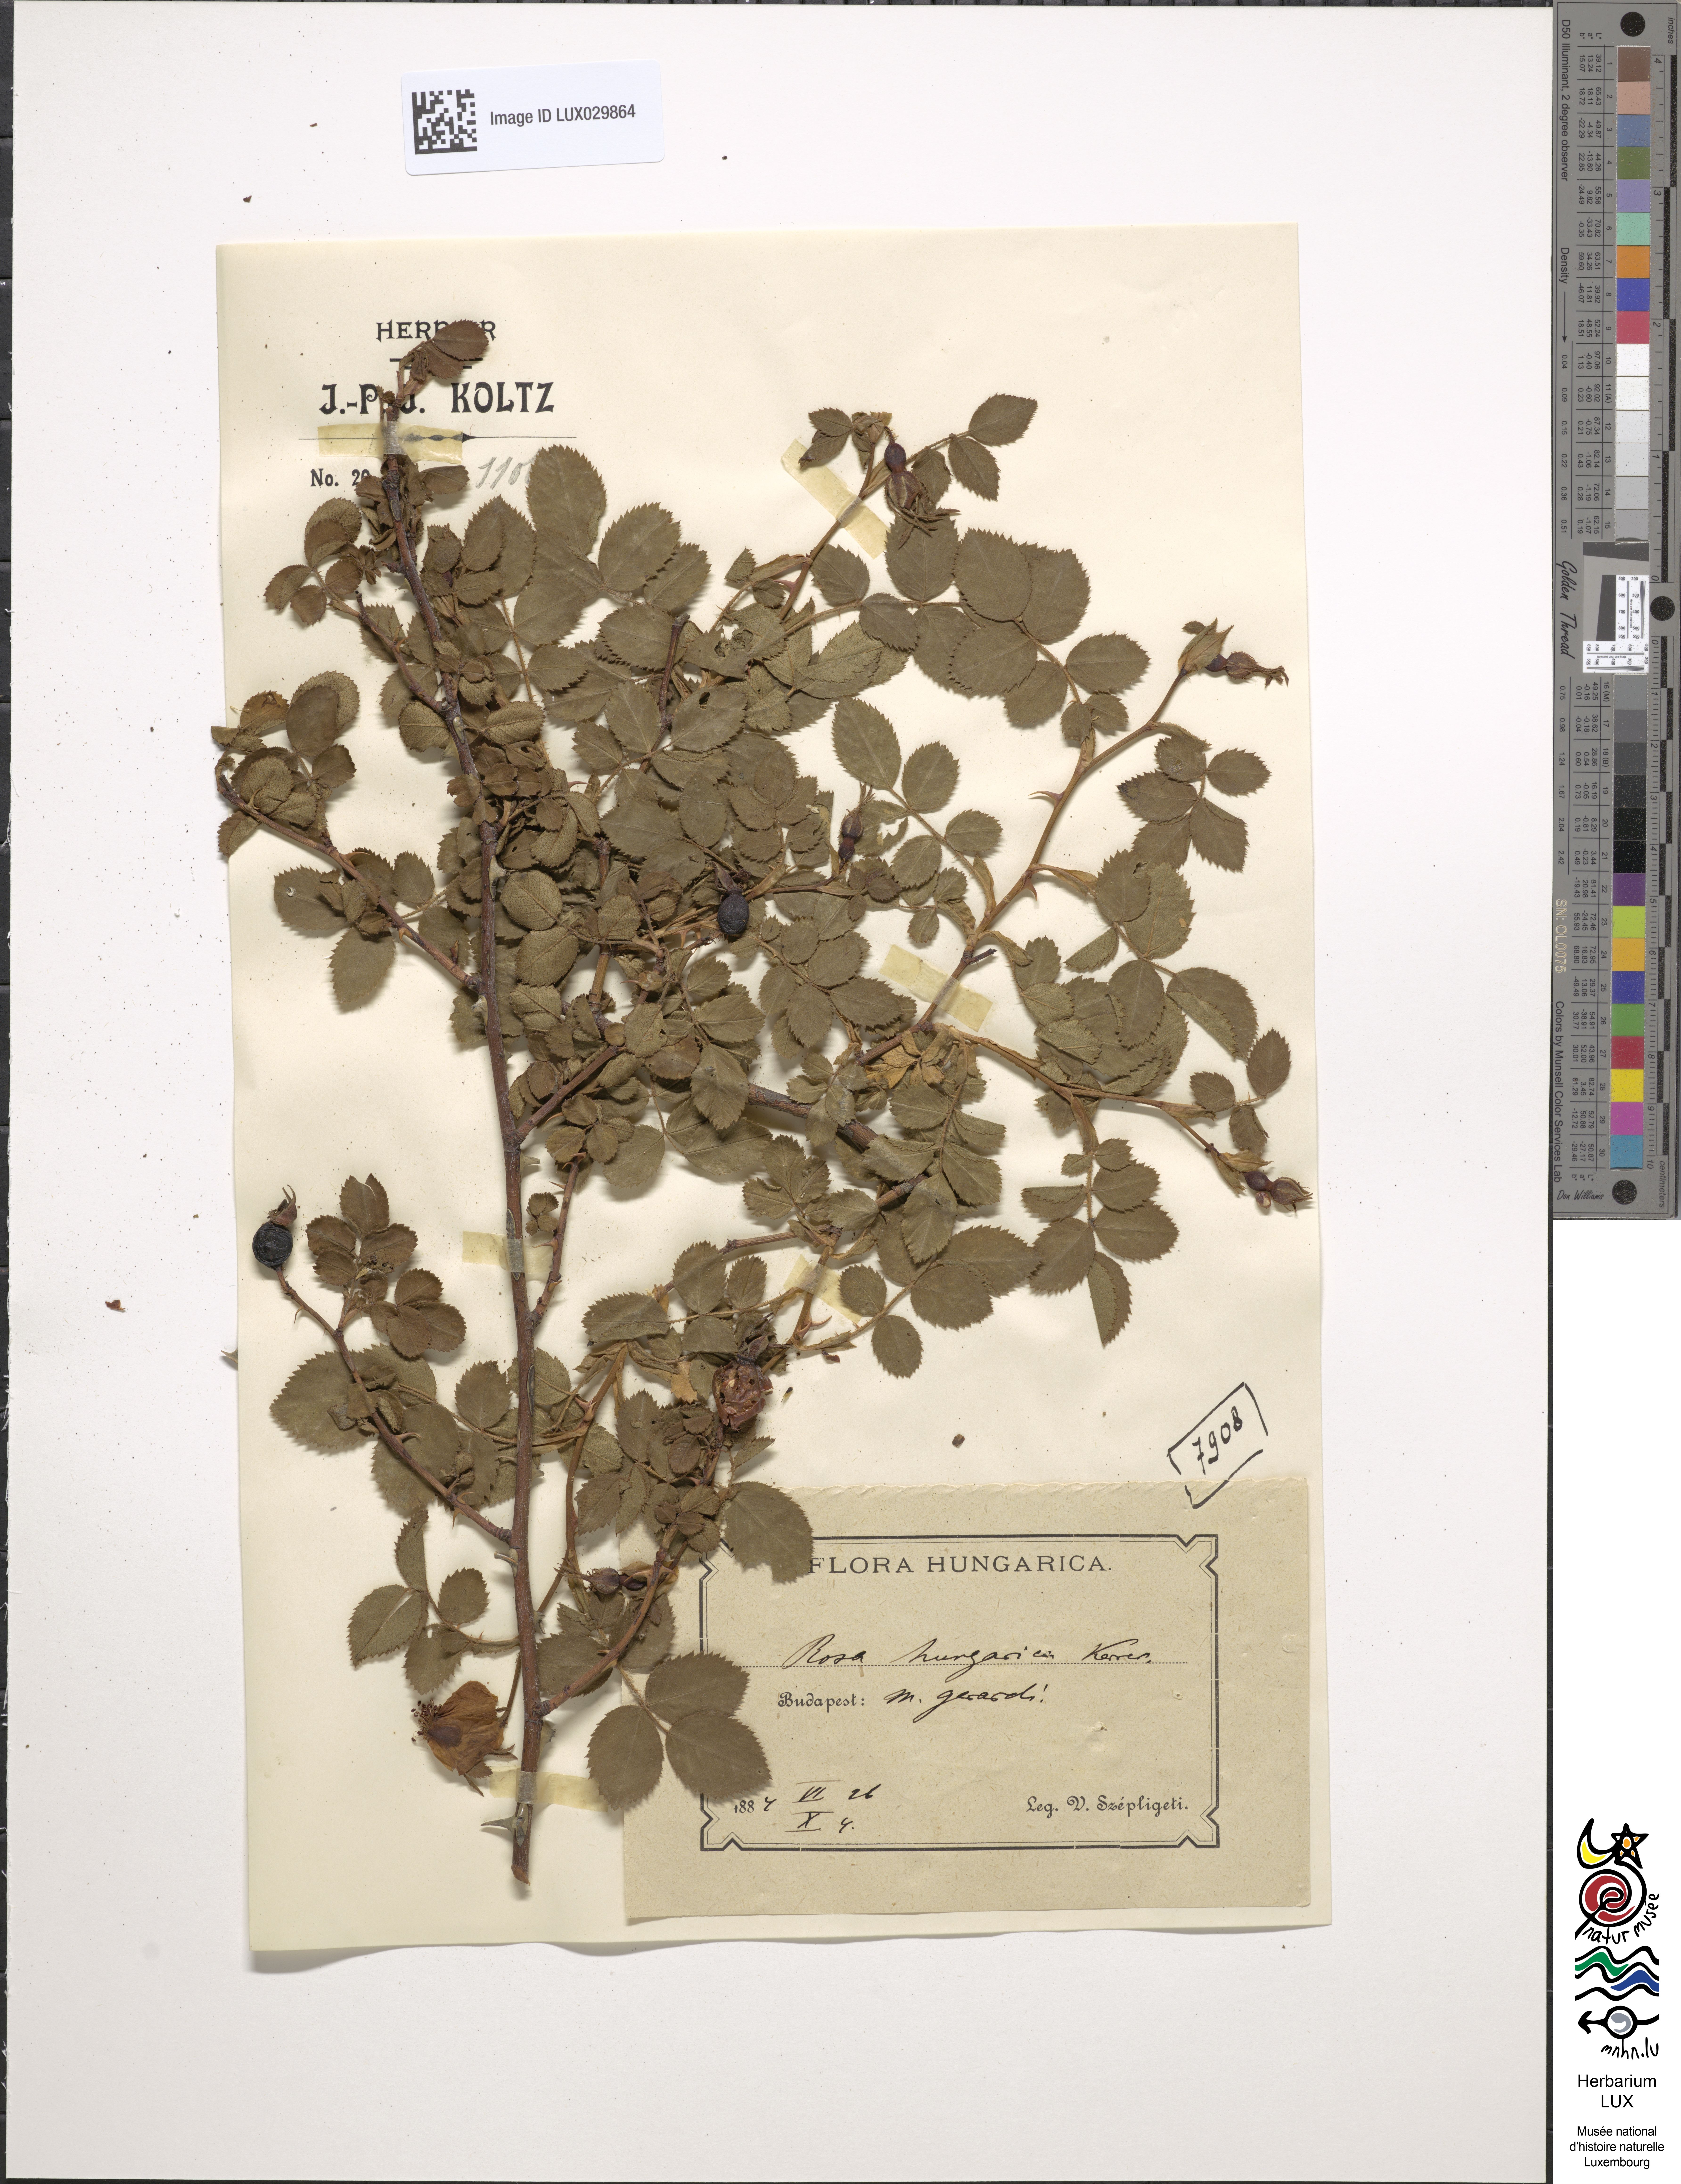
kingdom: Plantae
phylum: Tracheophyta
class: Magnoliopsida
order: Rosales
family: Rosaceae
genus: Rosa
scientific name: Rosa micrantha
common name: Small-flowered sweet-briar
